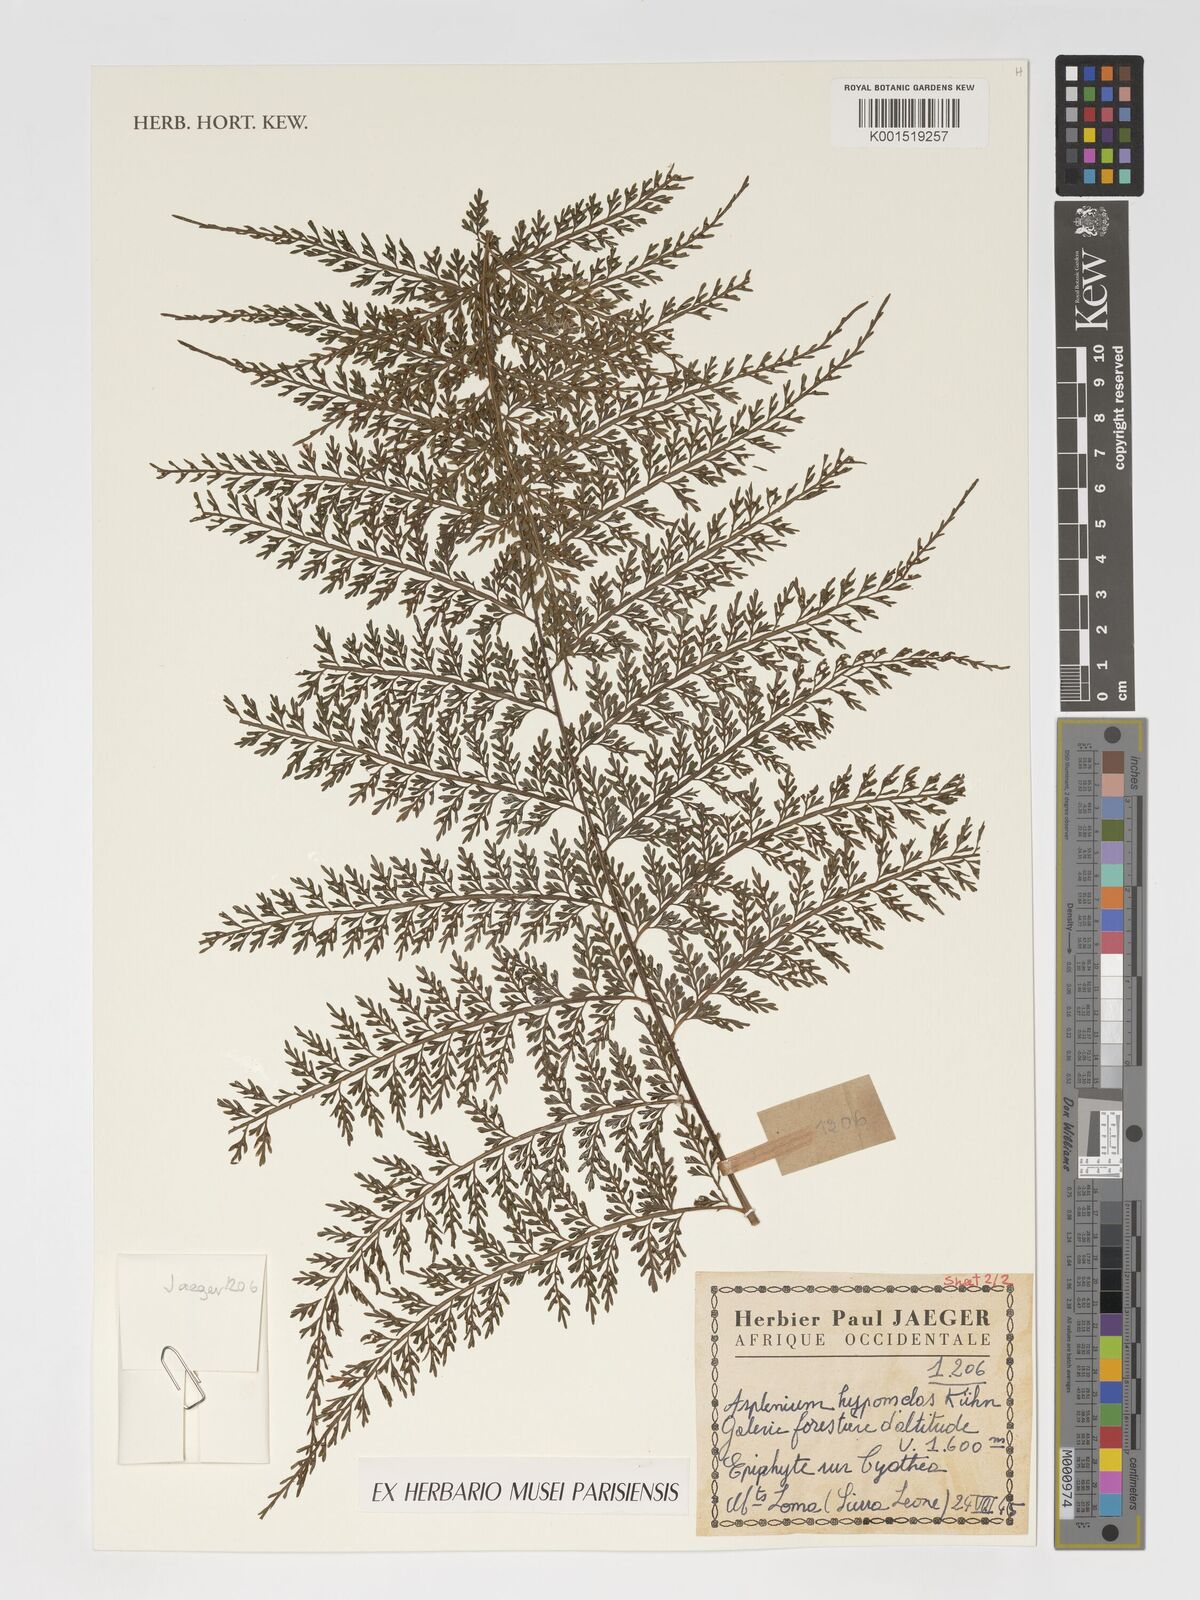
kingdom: Plantae
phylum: Tracheophyta
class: Polypodiopsida
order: Polypodiales
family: Aspleniaceae
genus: Asplenium
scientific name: Asplenium hypomelas
